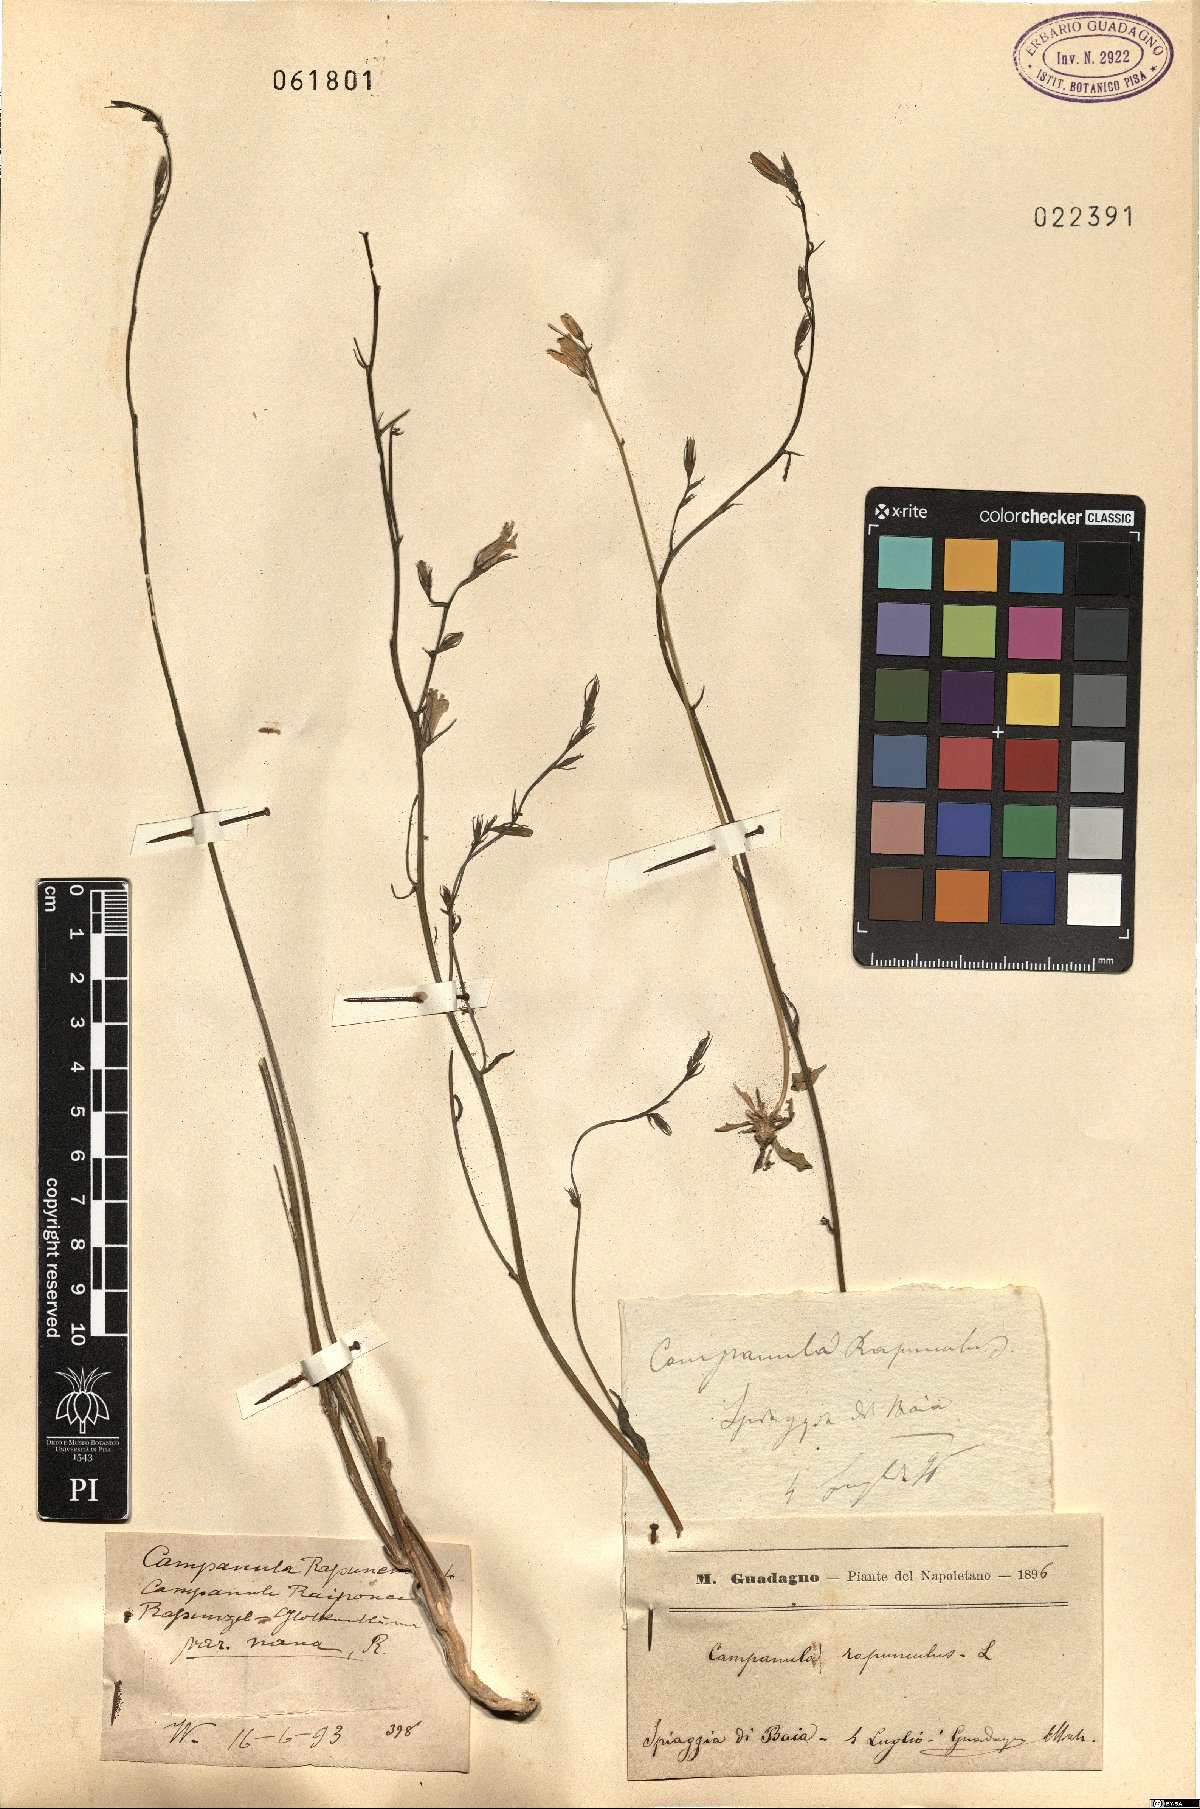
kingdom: Plantae
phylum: Tracheophyta
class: Magnoliopsida
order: Asterales
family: Campanulaceae
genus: Campanula
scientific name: Campanula rapunculus
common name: Rampion bellflower
